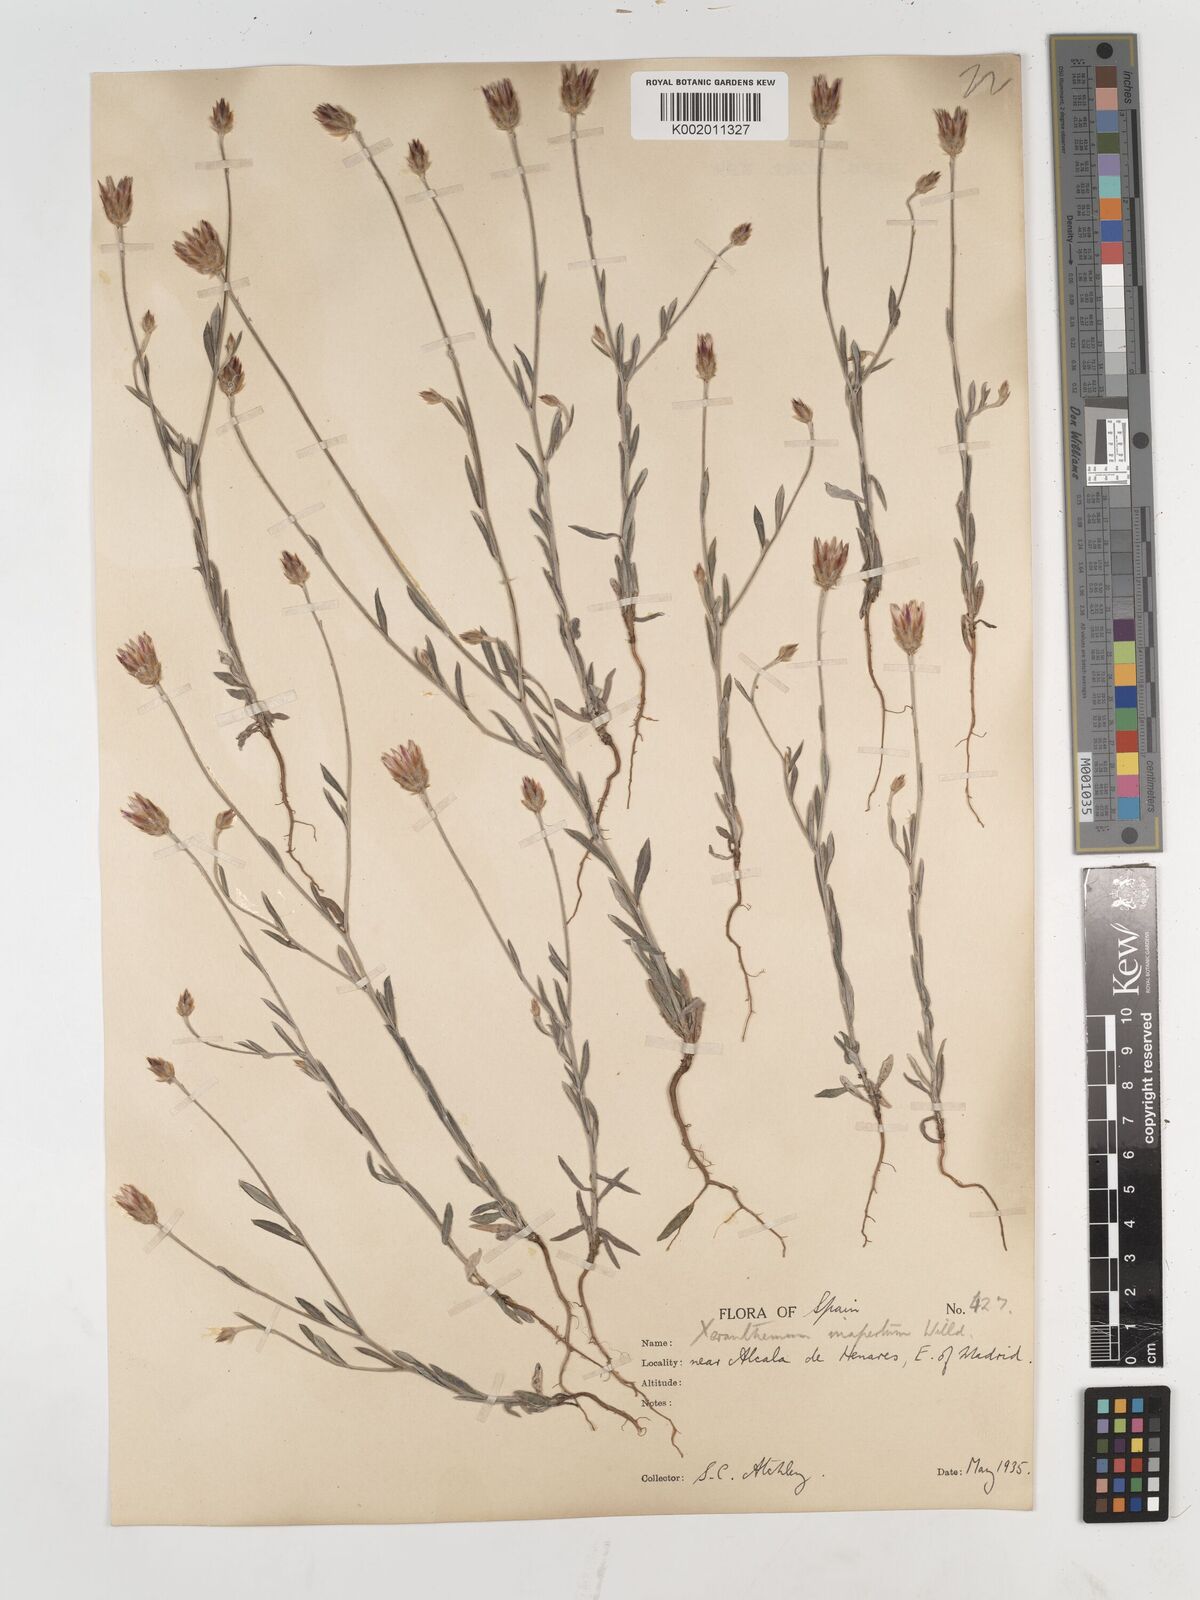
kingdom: Plantae
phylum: Tracheophyta
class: Magnoliopsida
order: Asterales
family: Asteraceae
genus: Xeranthemum
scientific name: Xeranthemum inapertum
